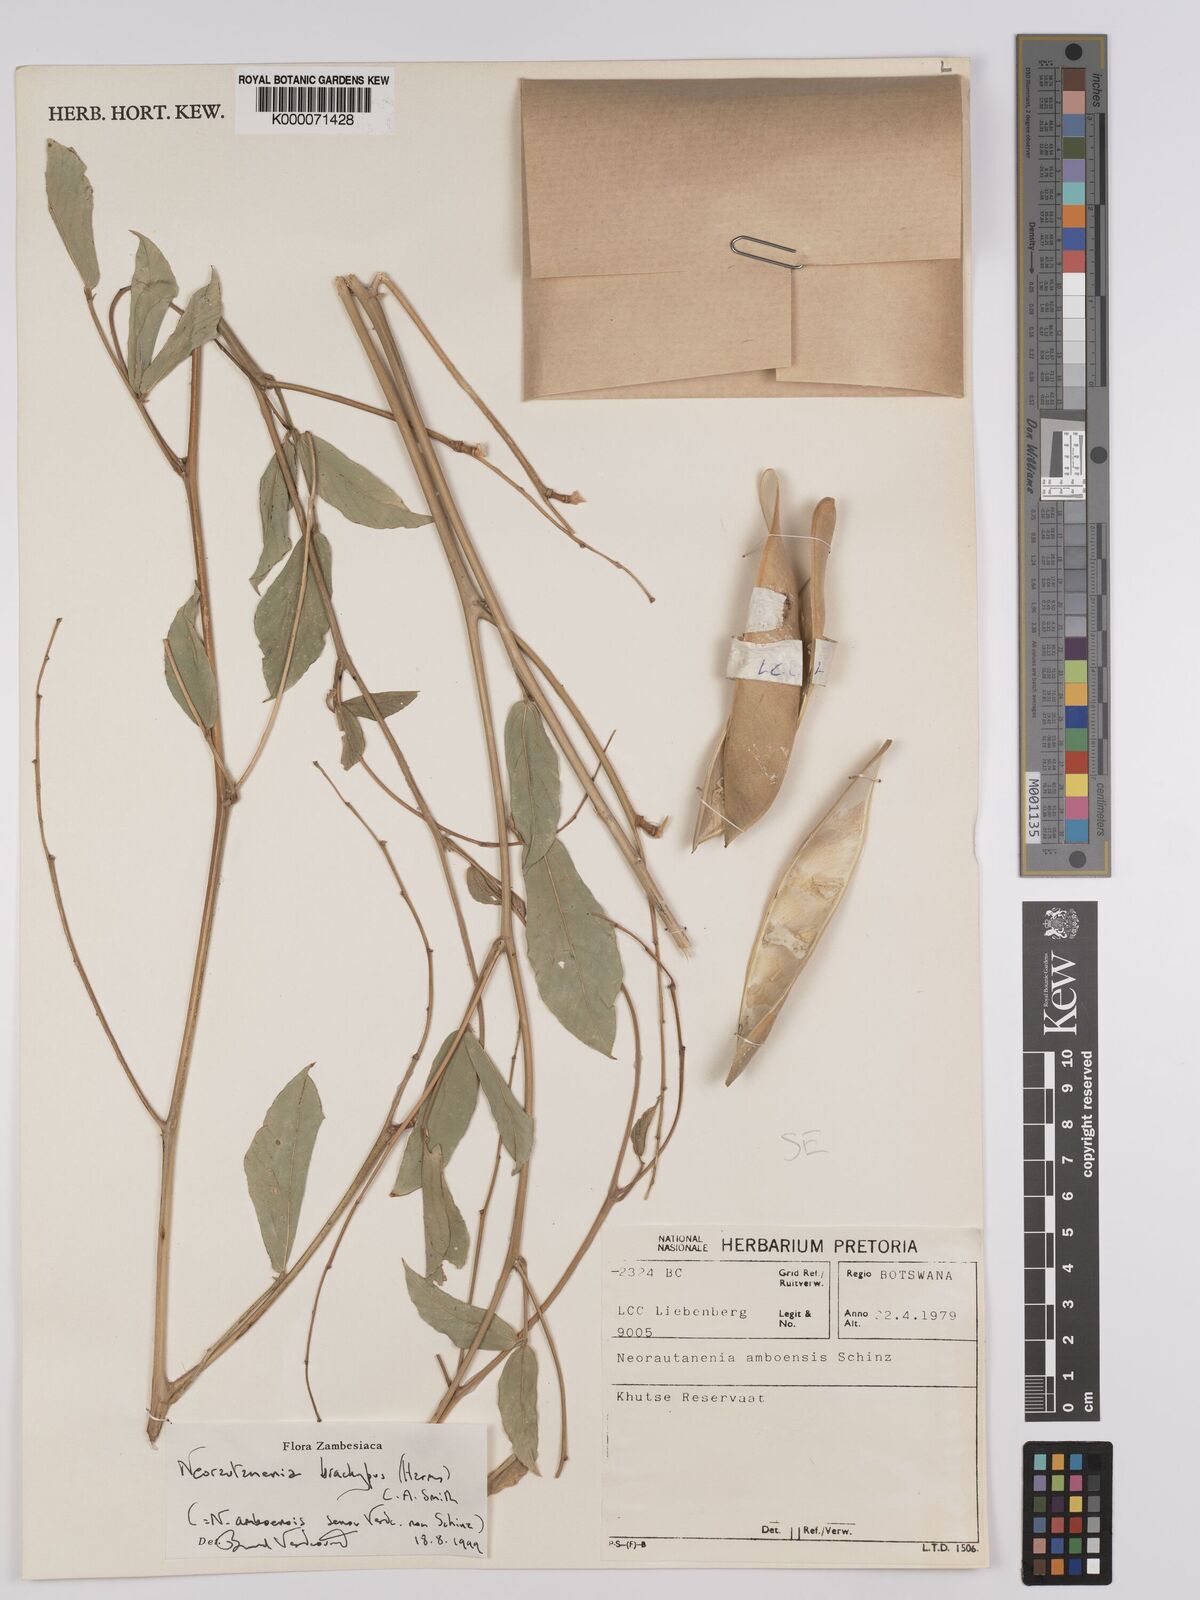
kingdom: Plantae
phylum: Tracheophyta
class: Magnoliopsida
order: Fabales
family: Fabaceae
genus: Neorautanenia
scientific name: Neorautanenia
